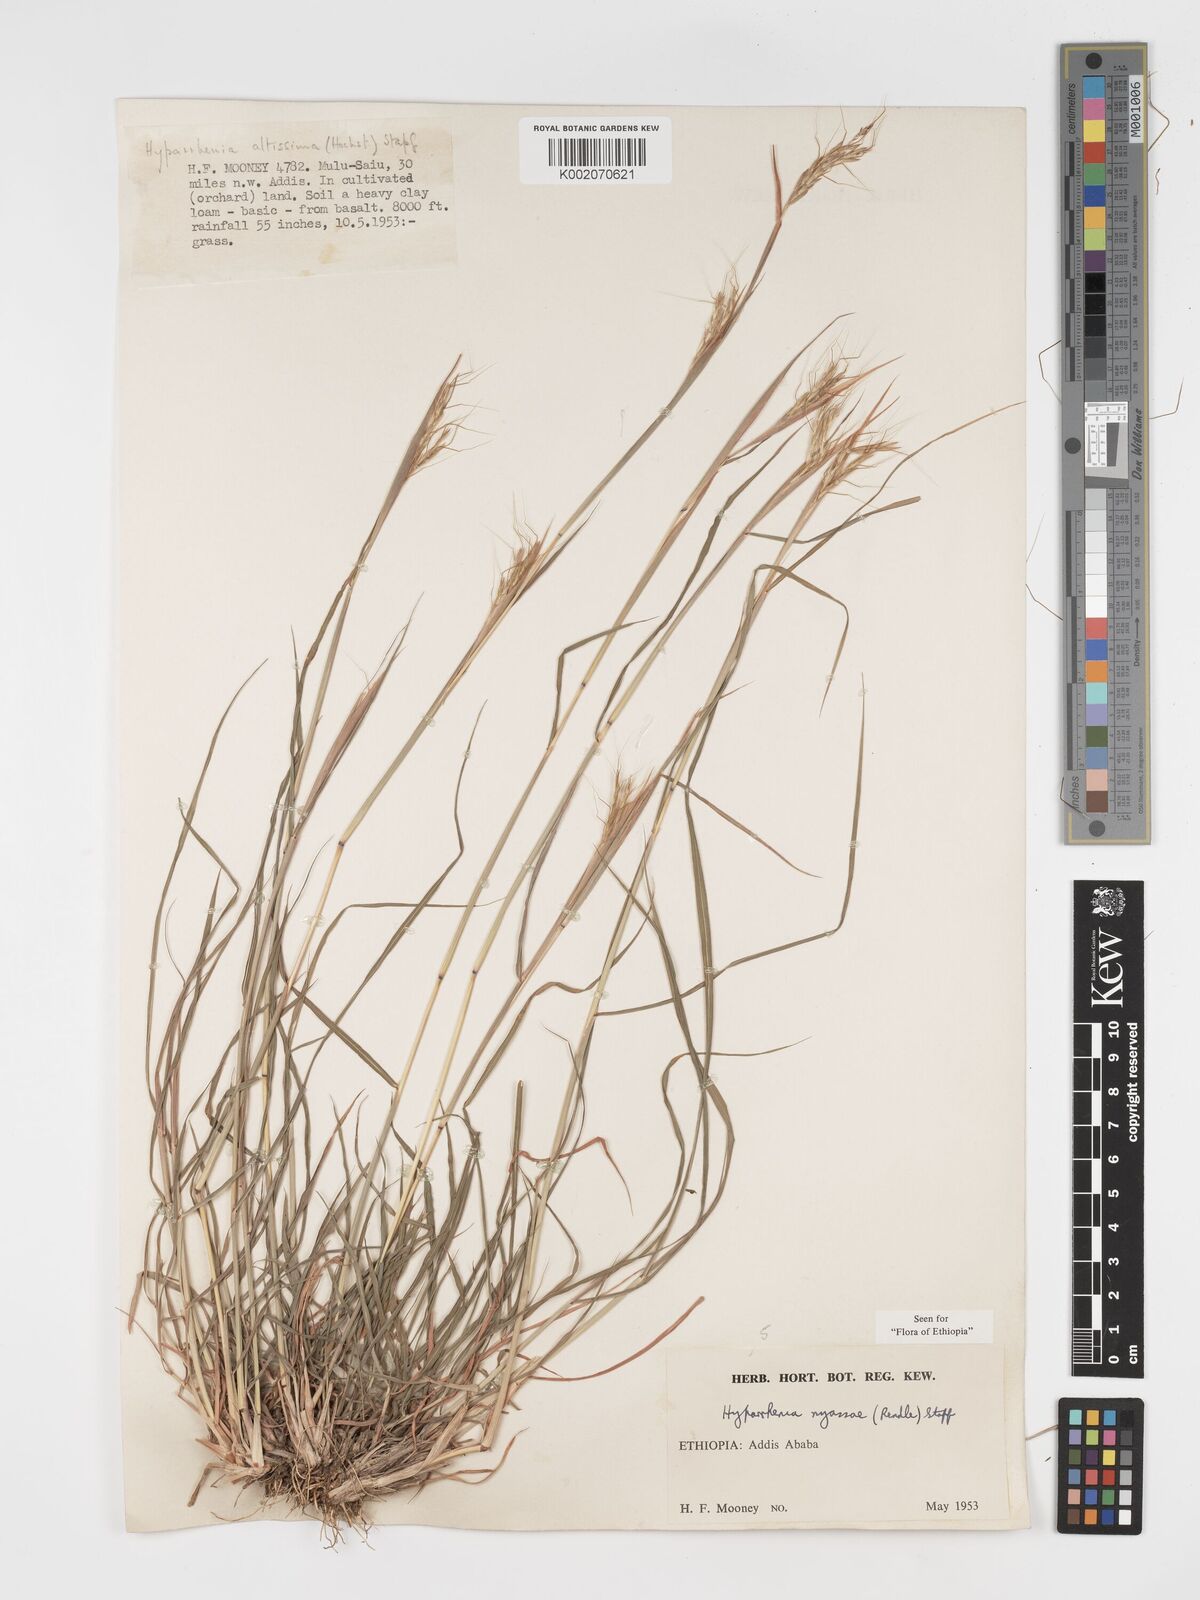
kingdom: Plantae
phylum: Tracheophyta
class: Liliopsida
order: Poales
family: Poaceae
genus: Hyparrhenia
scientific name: Hyparrhenia nyassae
